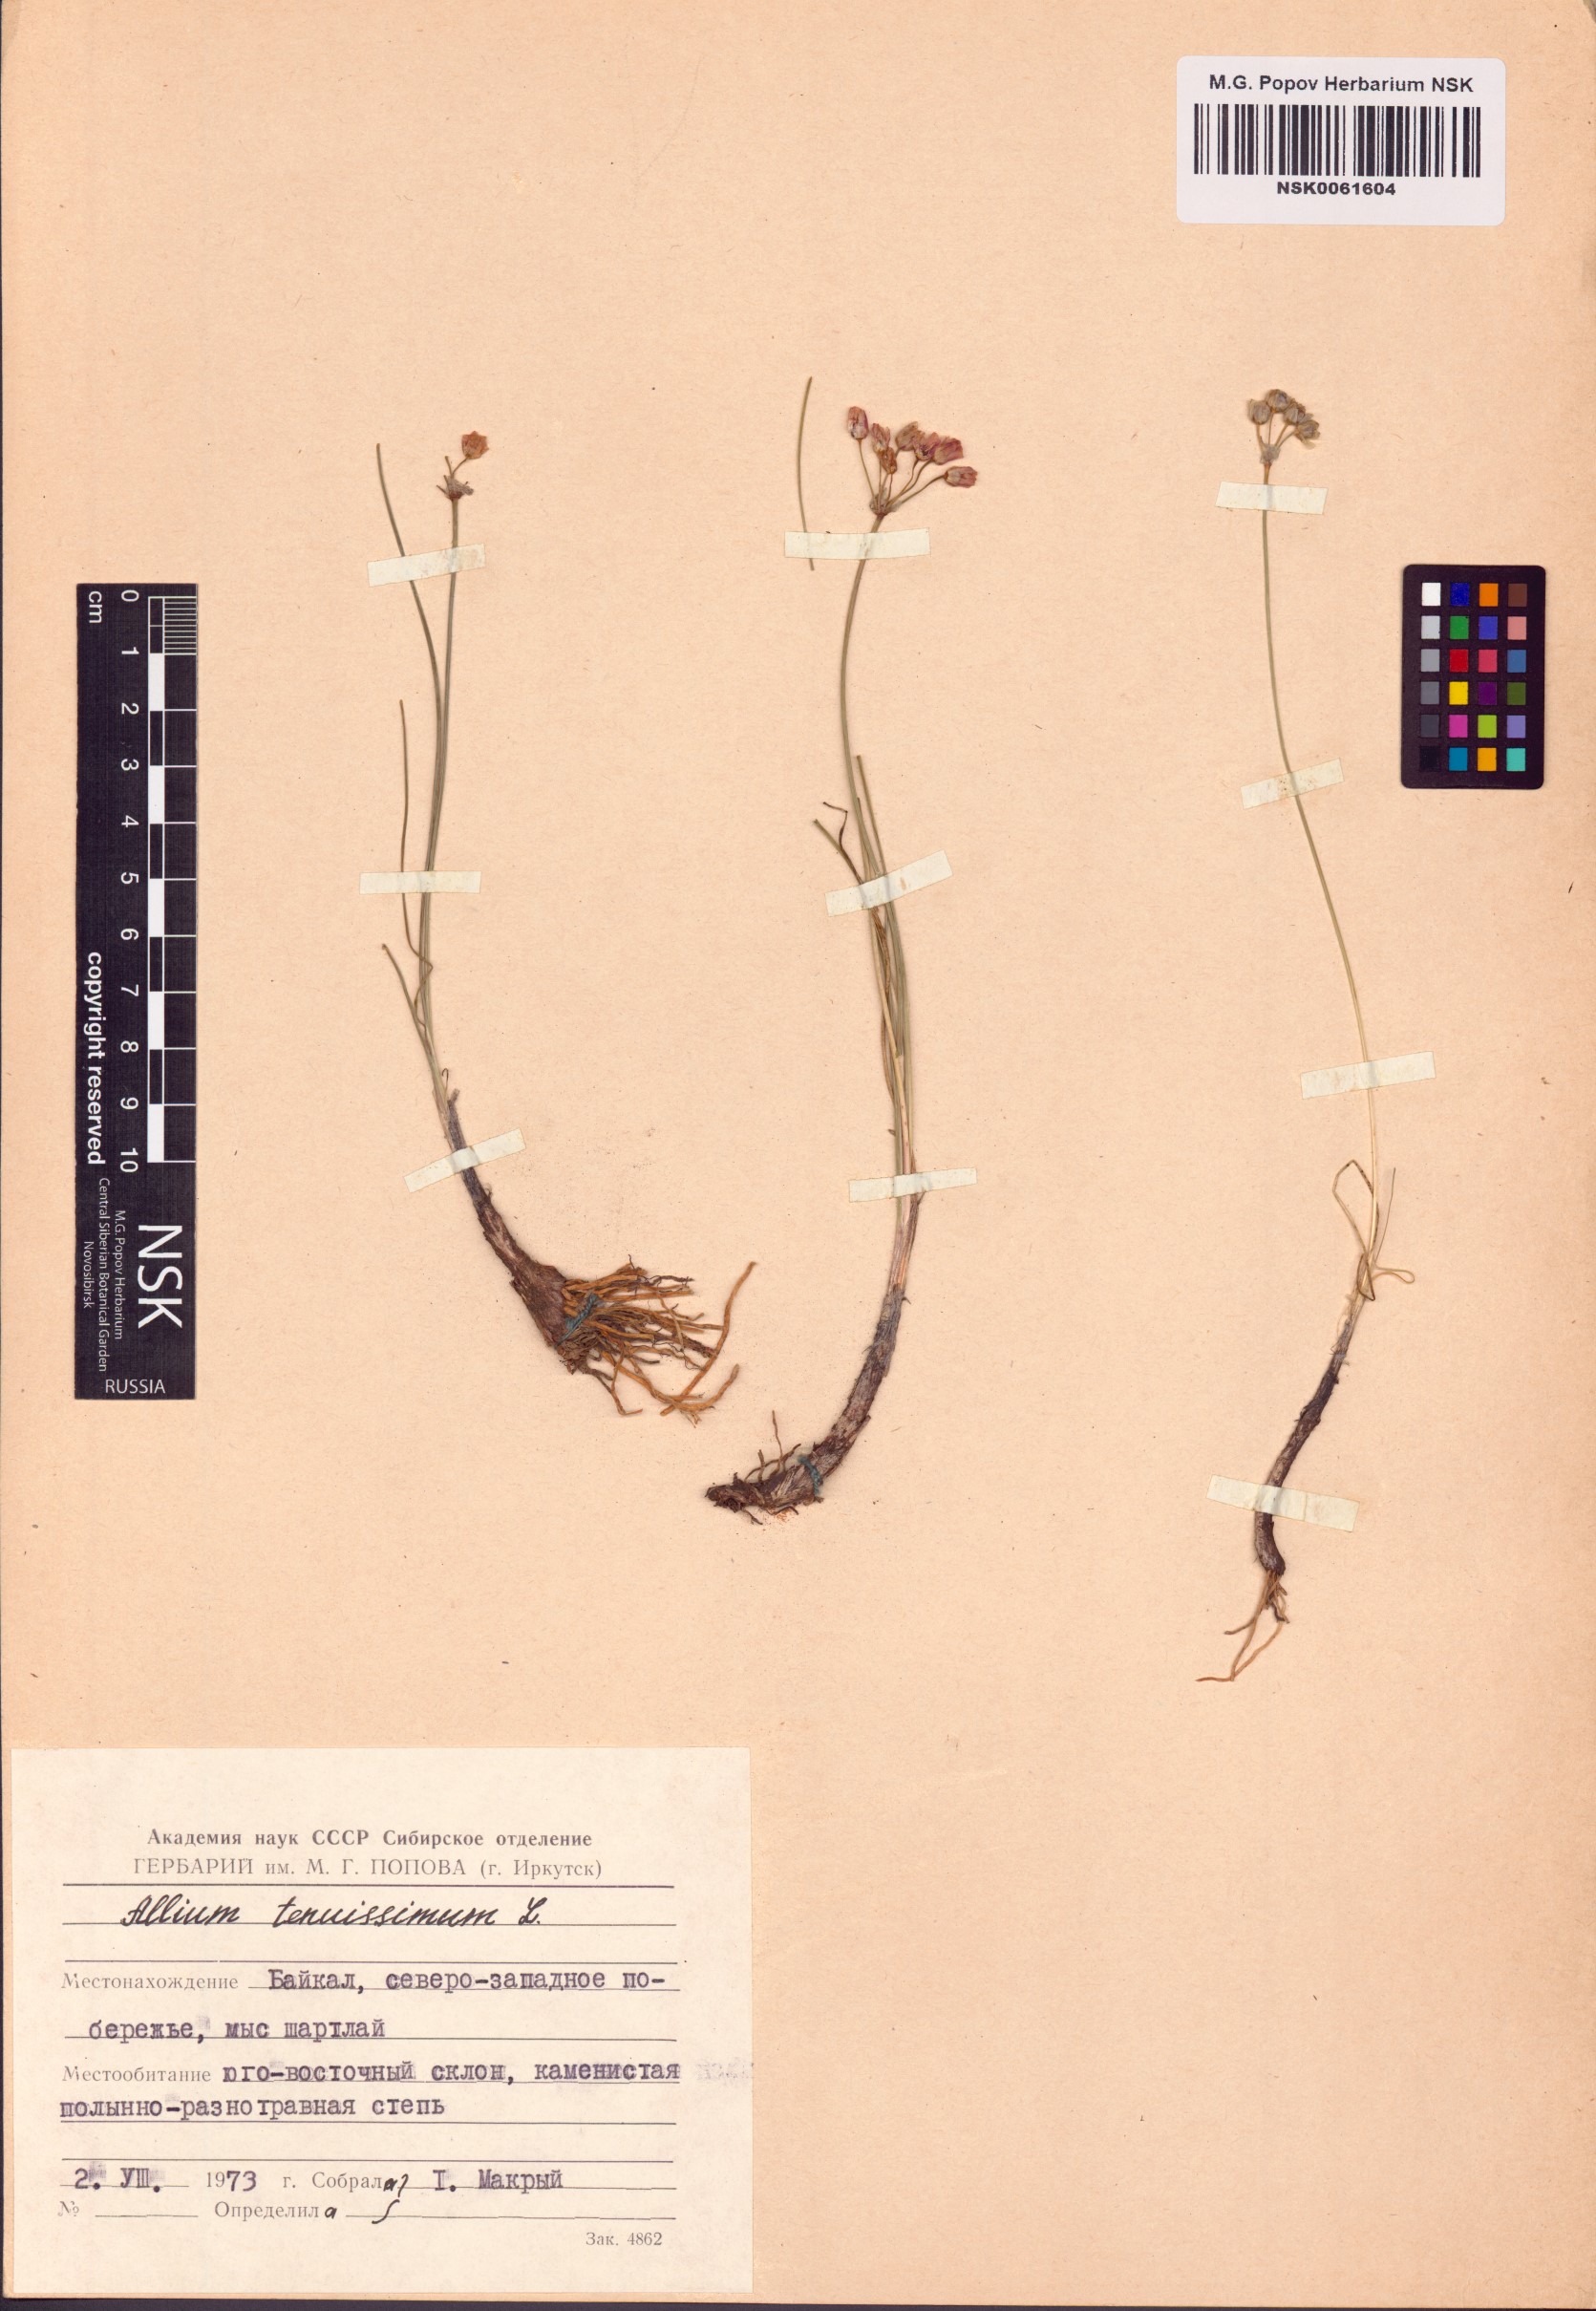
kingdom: Plantae
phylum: Tracheophyta
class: Liliopsida
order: Asparagales
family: Amaryllidaceae
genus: Allium
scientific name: Allium tenuissimum
